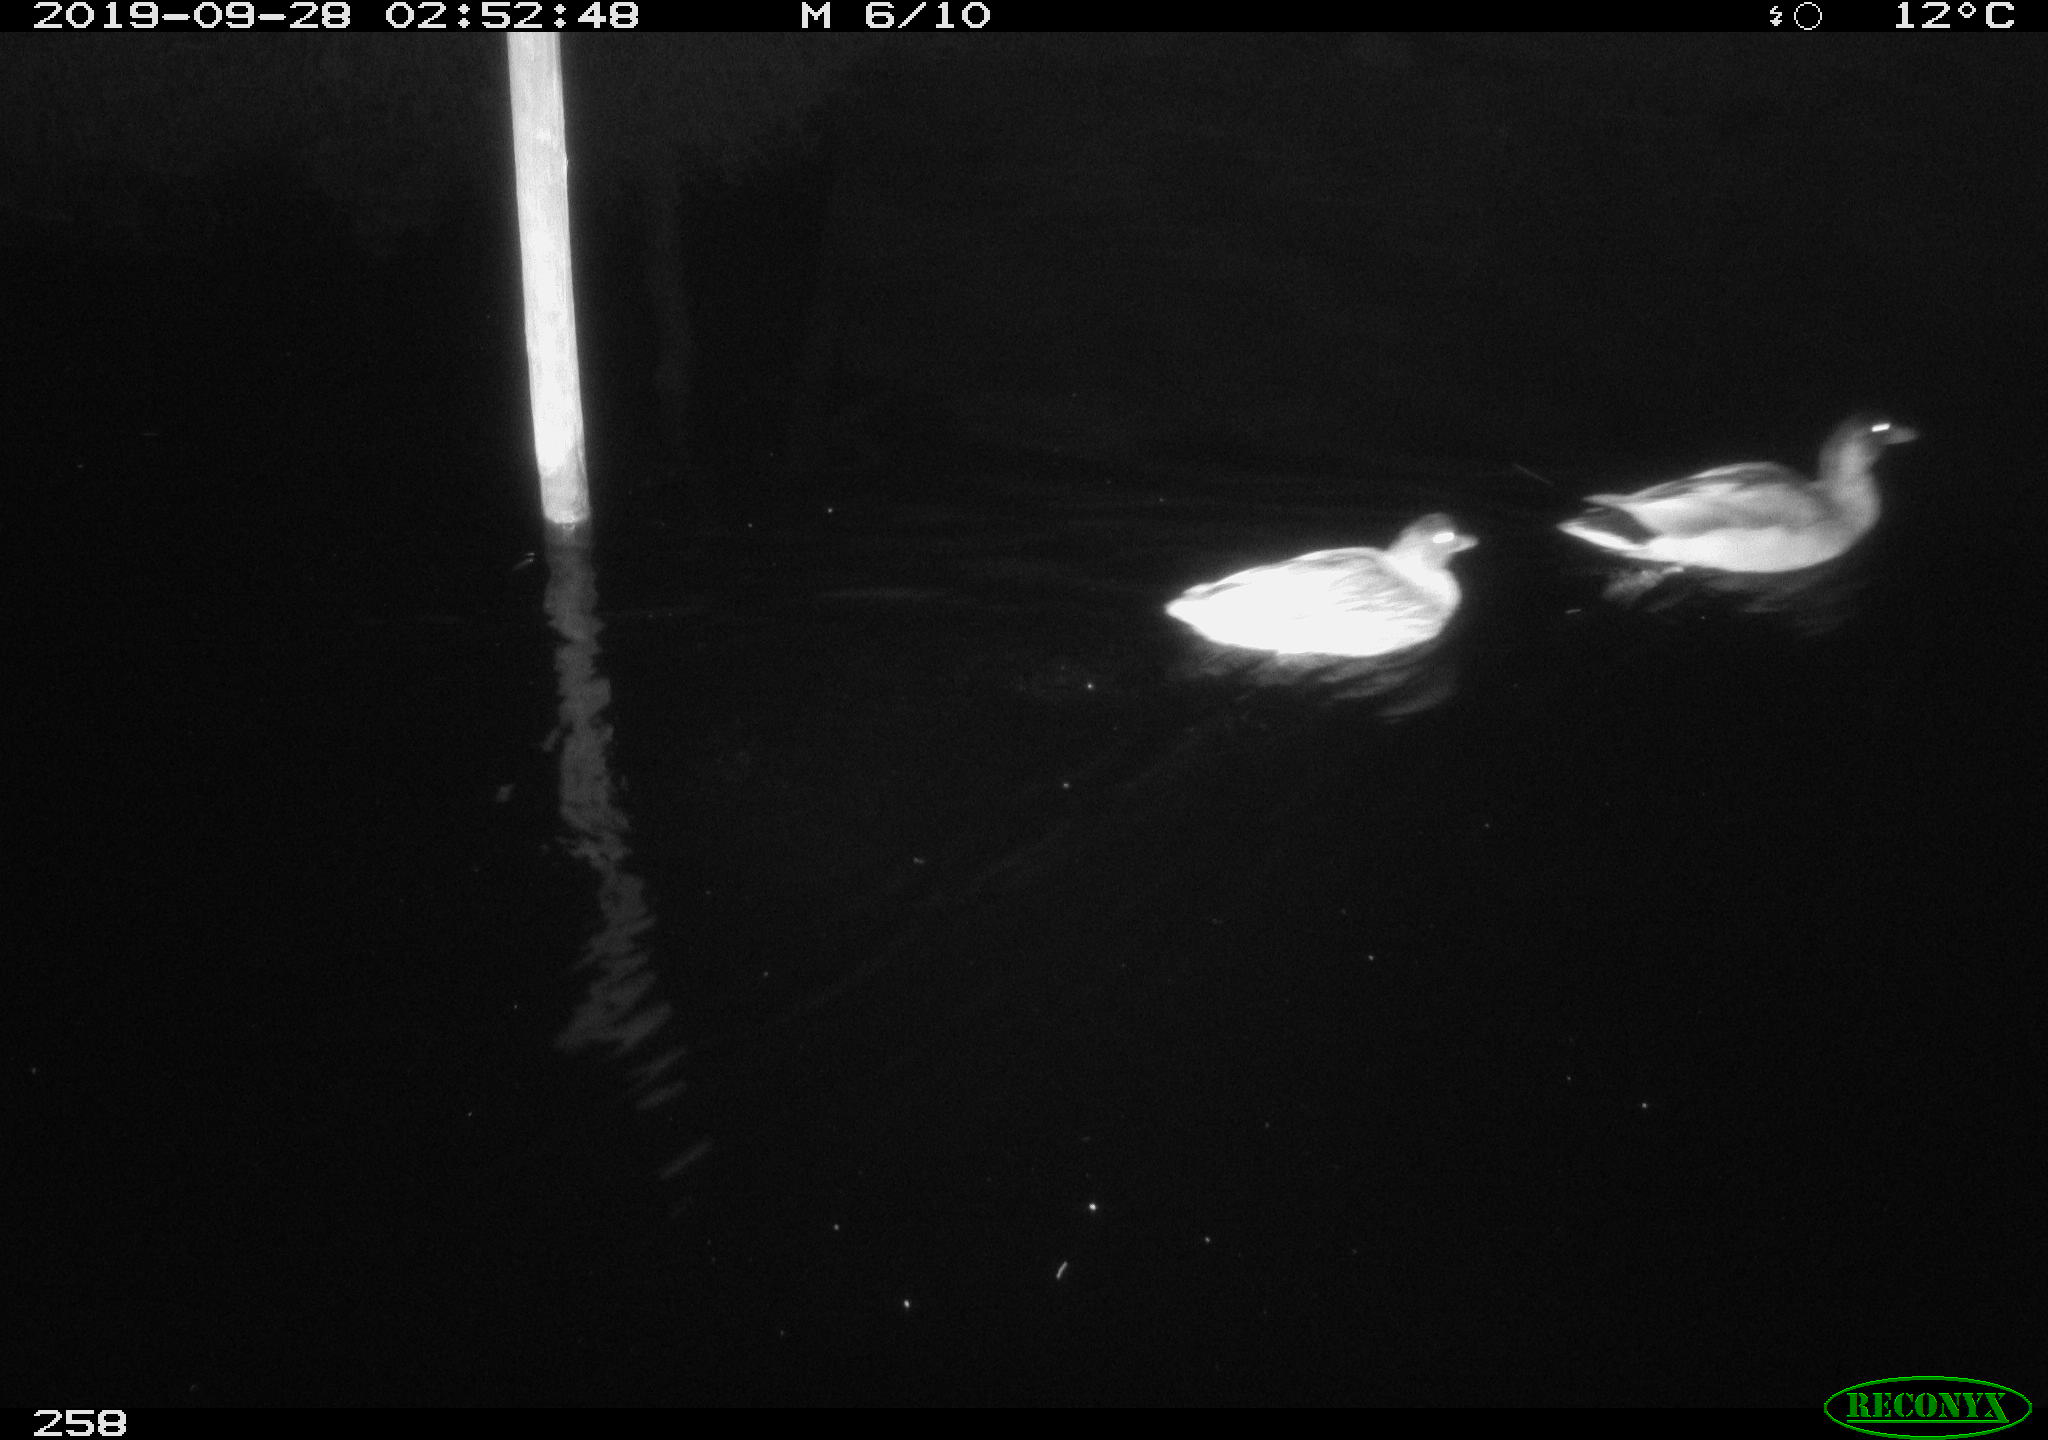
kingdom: Animalia
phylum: Chordata
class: Aves
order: Anseriformes
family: Anatidae
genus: Anas
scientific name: Anas platyrhynchos
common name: Mallard
